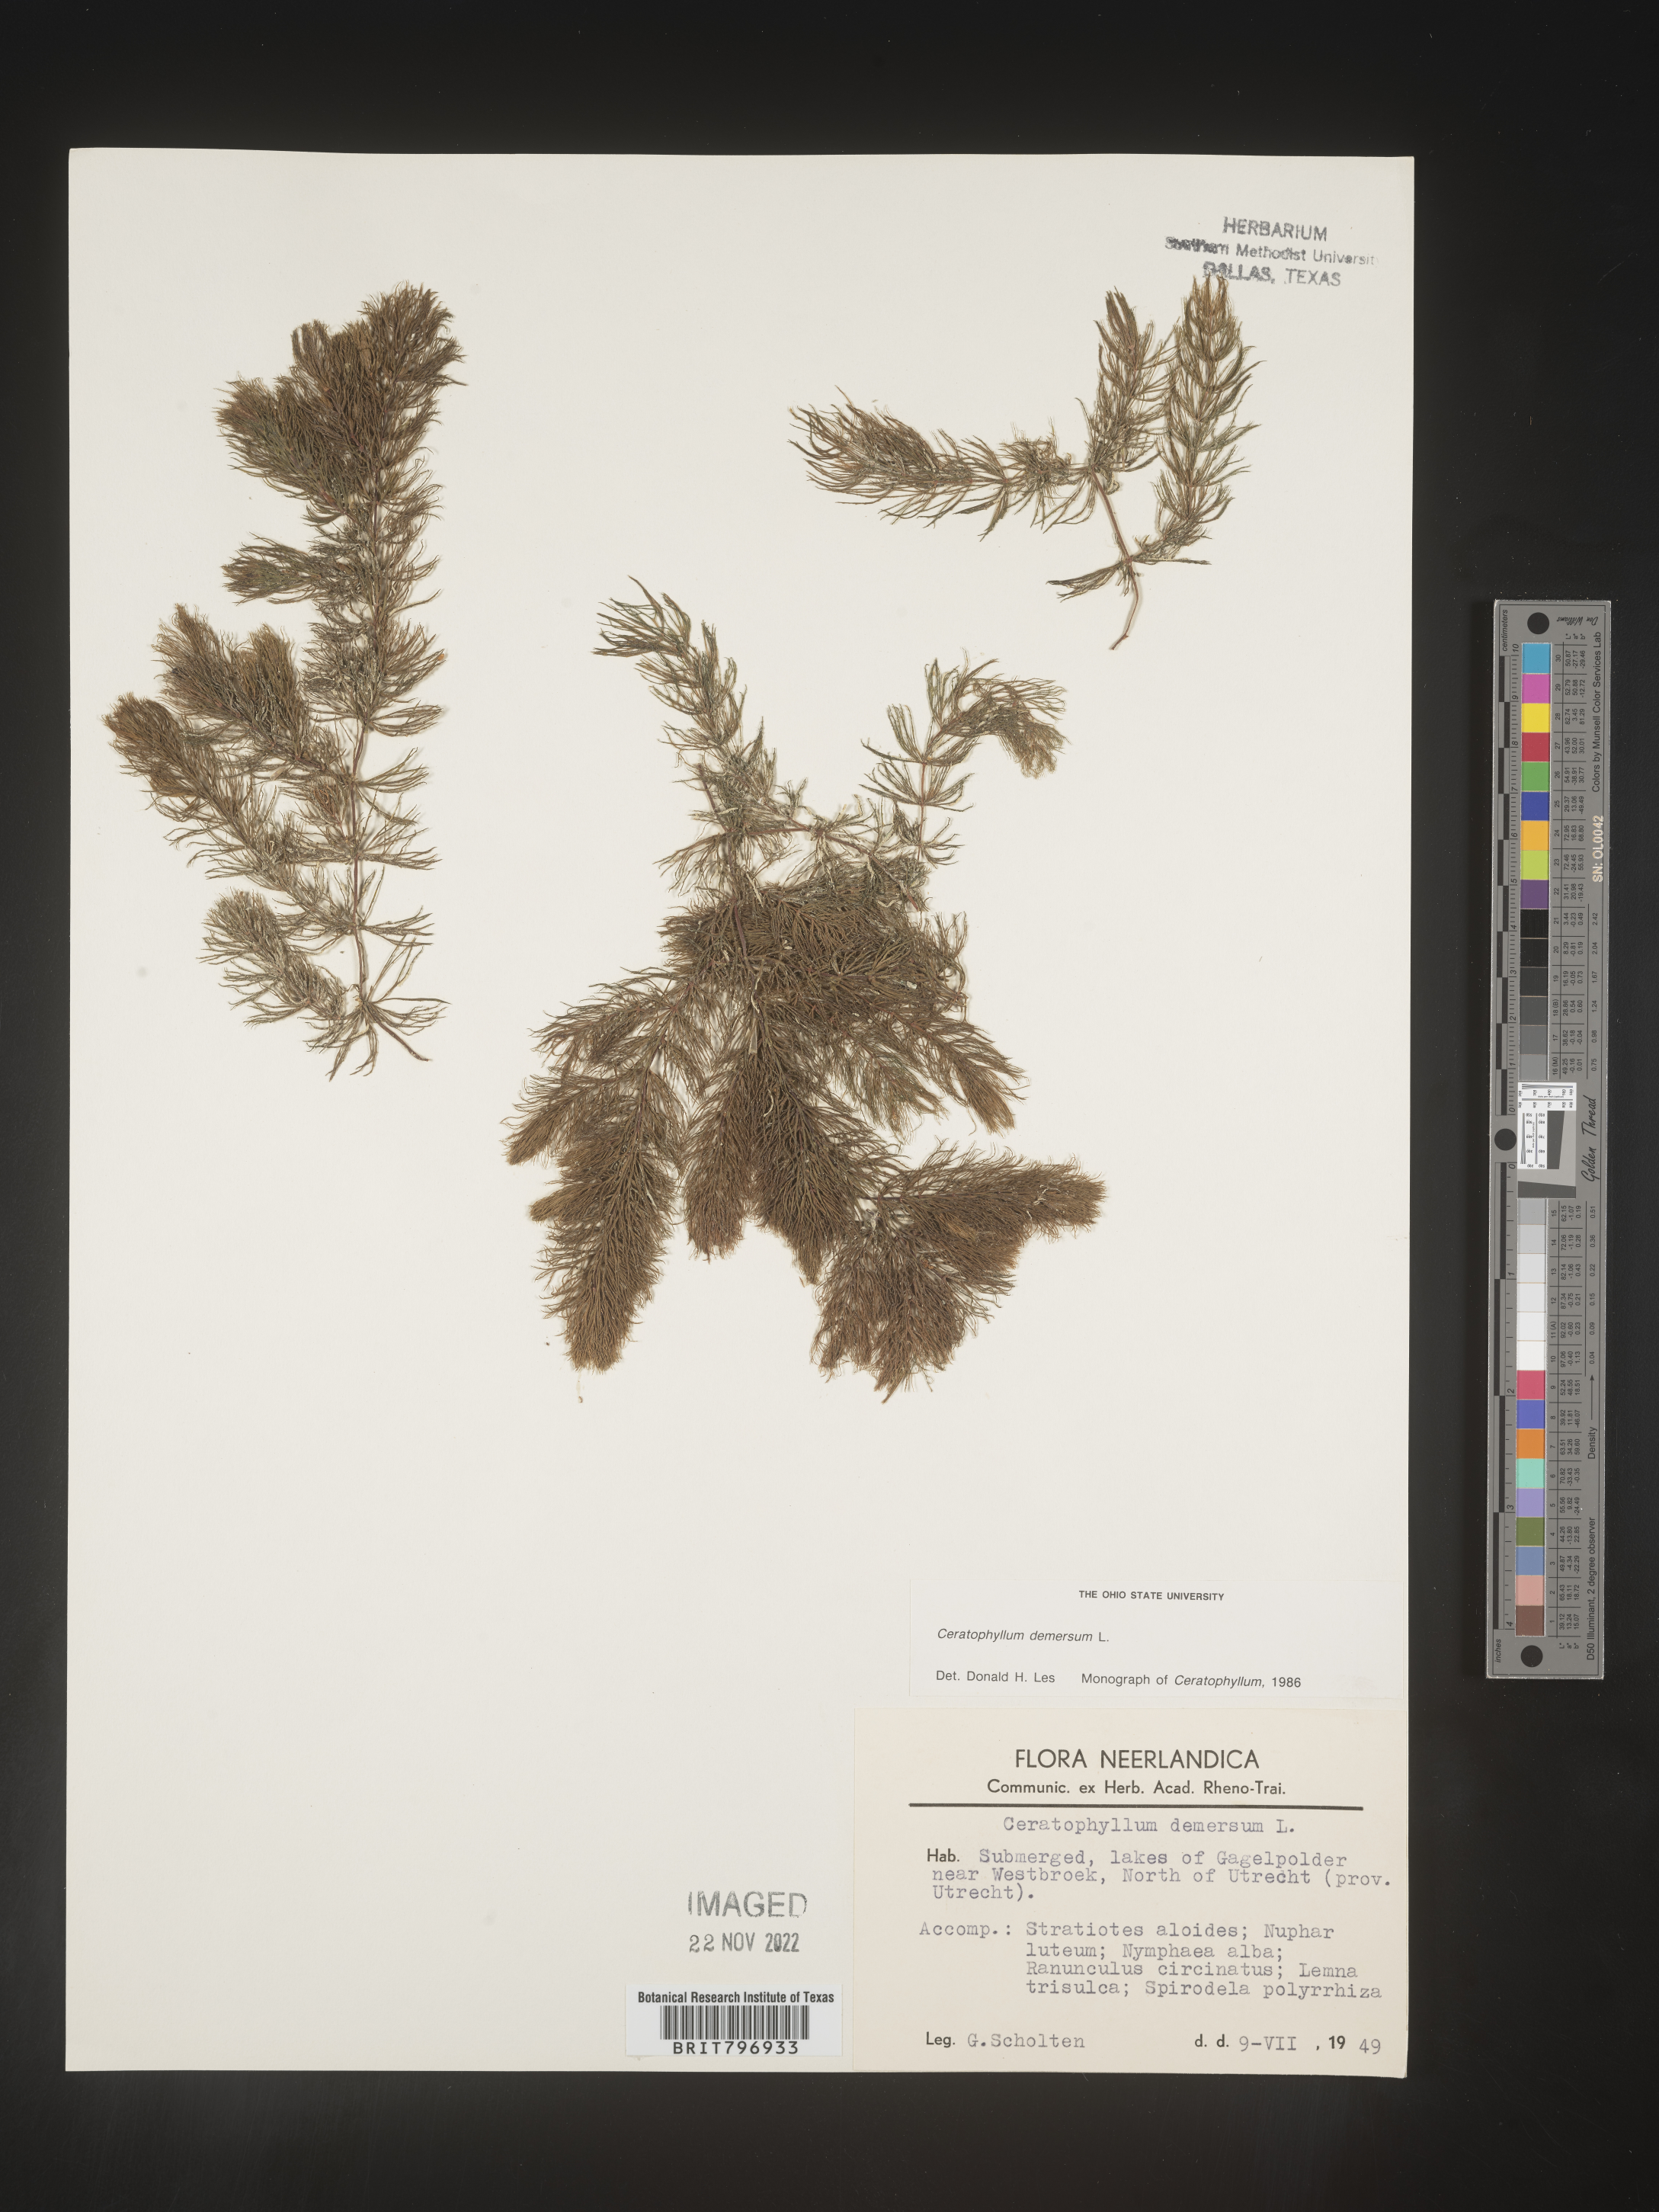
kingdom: Plantae
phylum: Tracheophyta
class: Magnoliopsida
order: Ceratophyllales
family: Ceratophyllaceae
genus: Ceratophyllum
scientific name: Ceratophyllum
